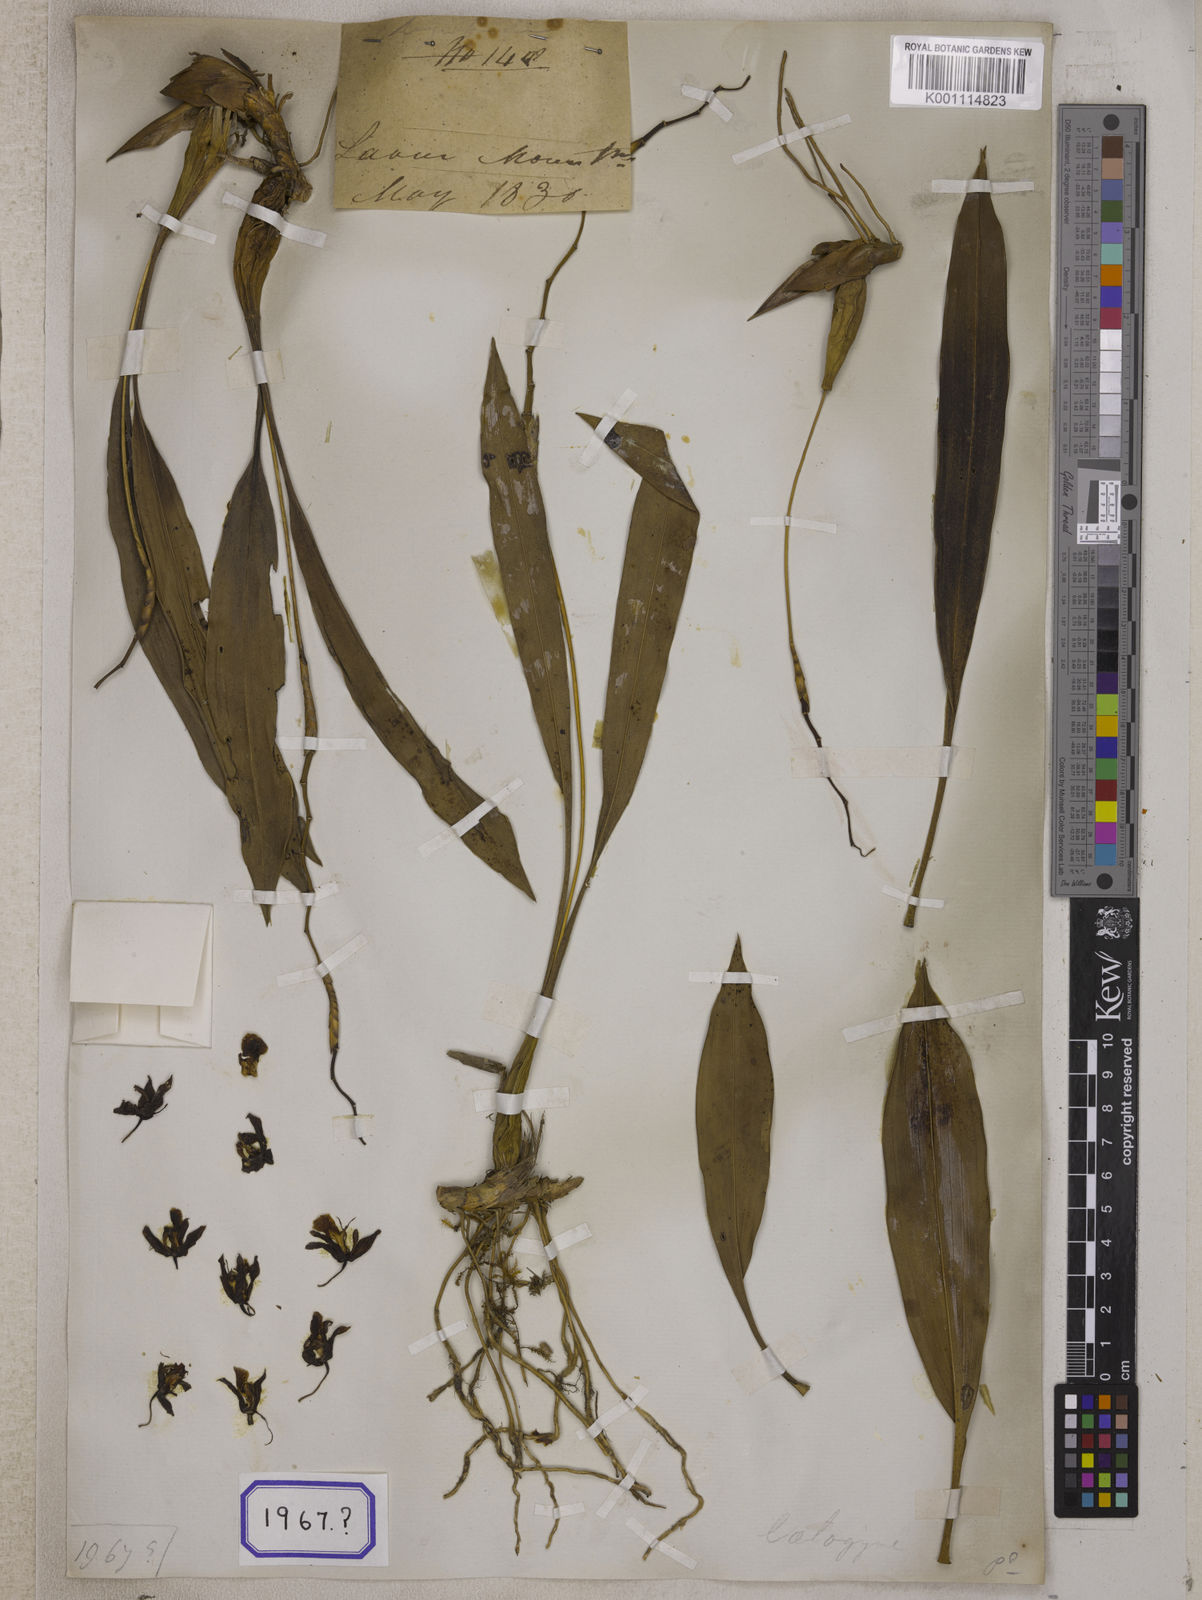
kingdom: Plantae
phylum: Tracheophyta
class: Liliopsida
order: Asparagales
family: Orchidaceae
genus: Coelogyne
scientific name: Coelogyne alba
